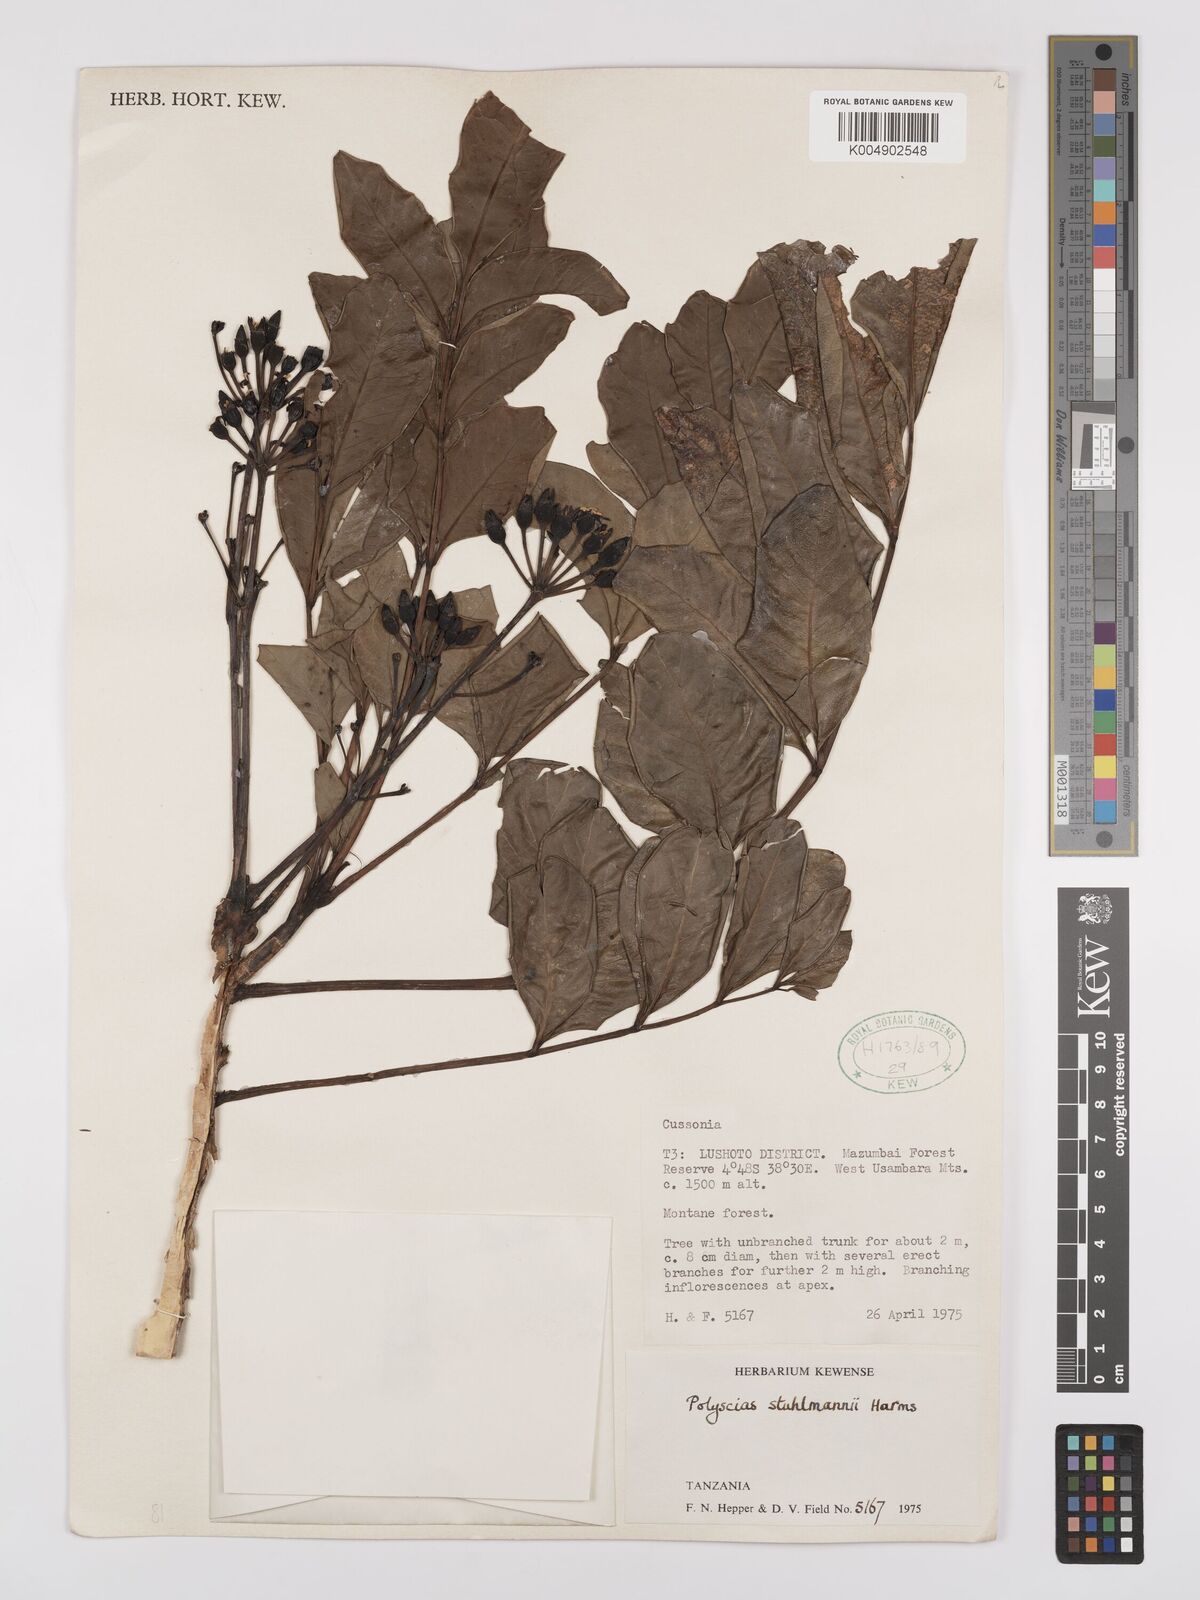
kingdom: Plantae
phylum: Tracheophyta
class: Magnoliopsida
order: Apiales
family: Araliaceae
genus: Polyscias
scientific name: Polyscias stuhlmannii
